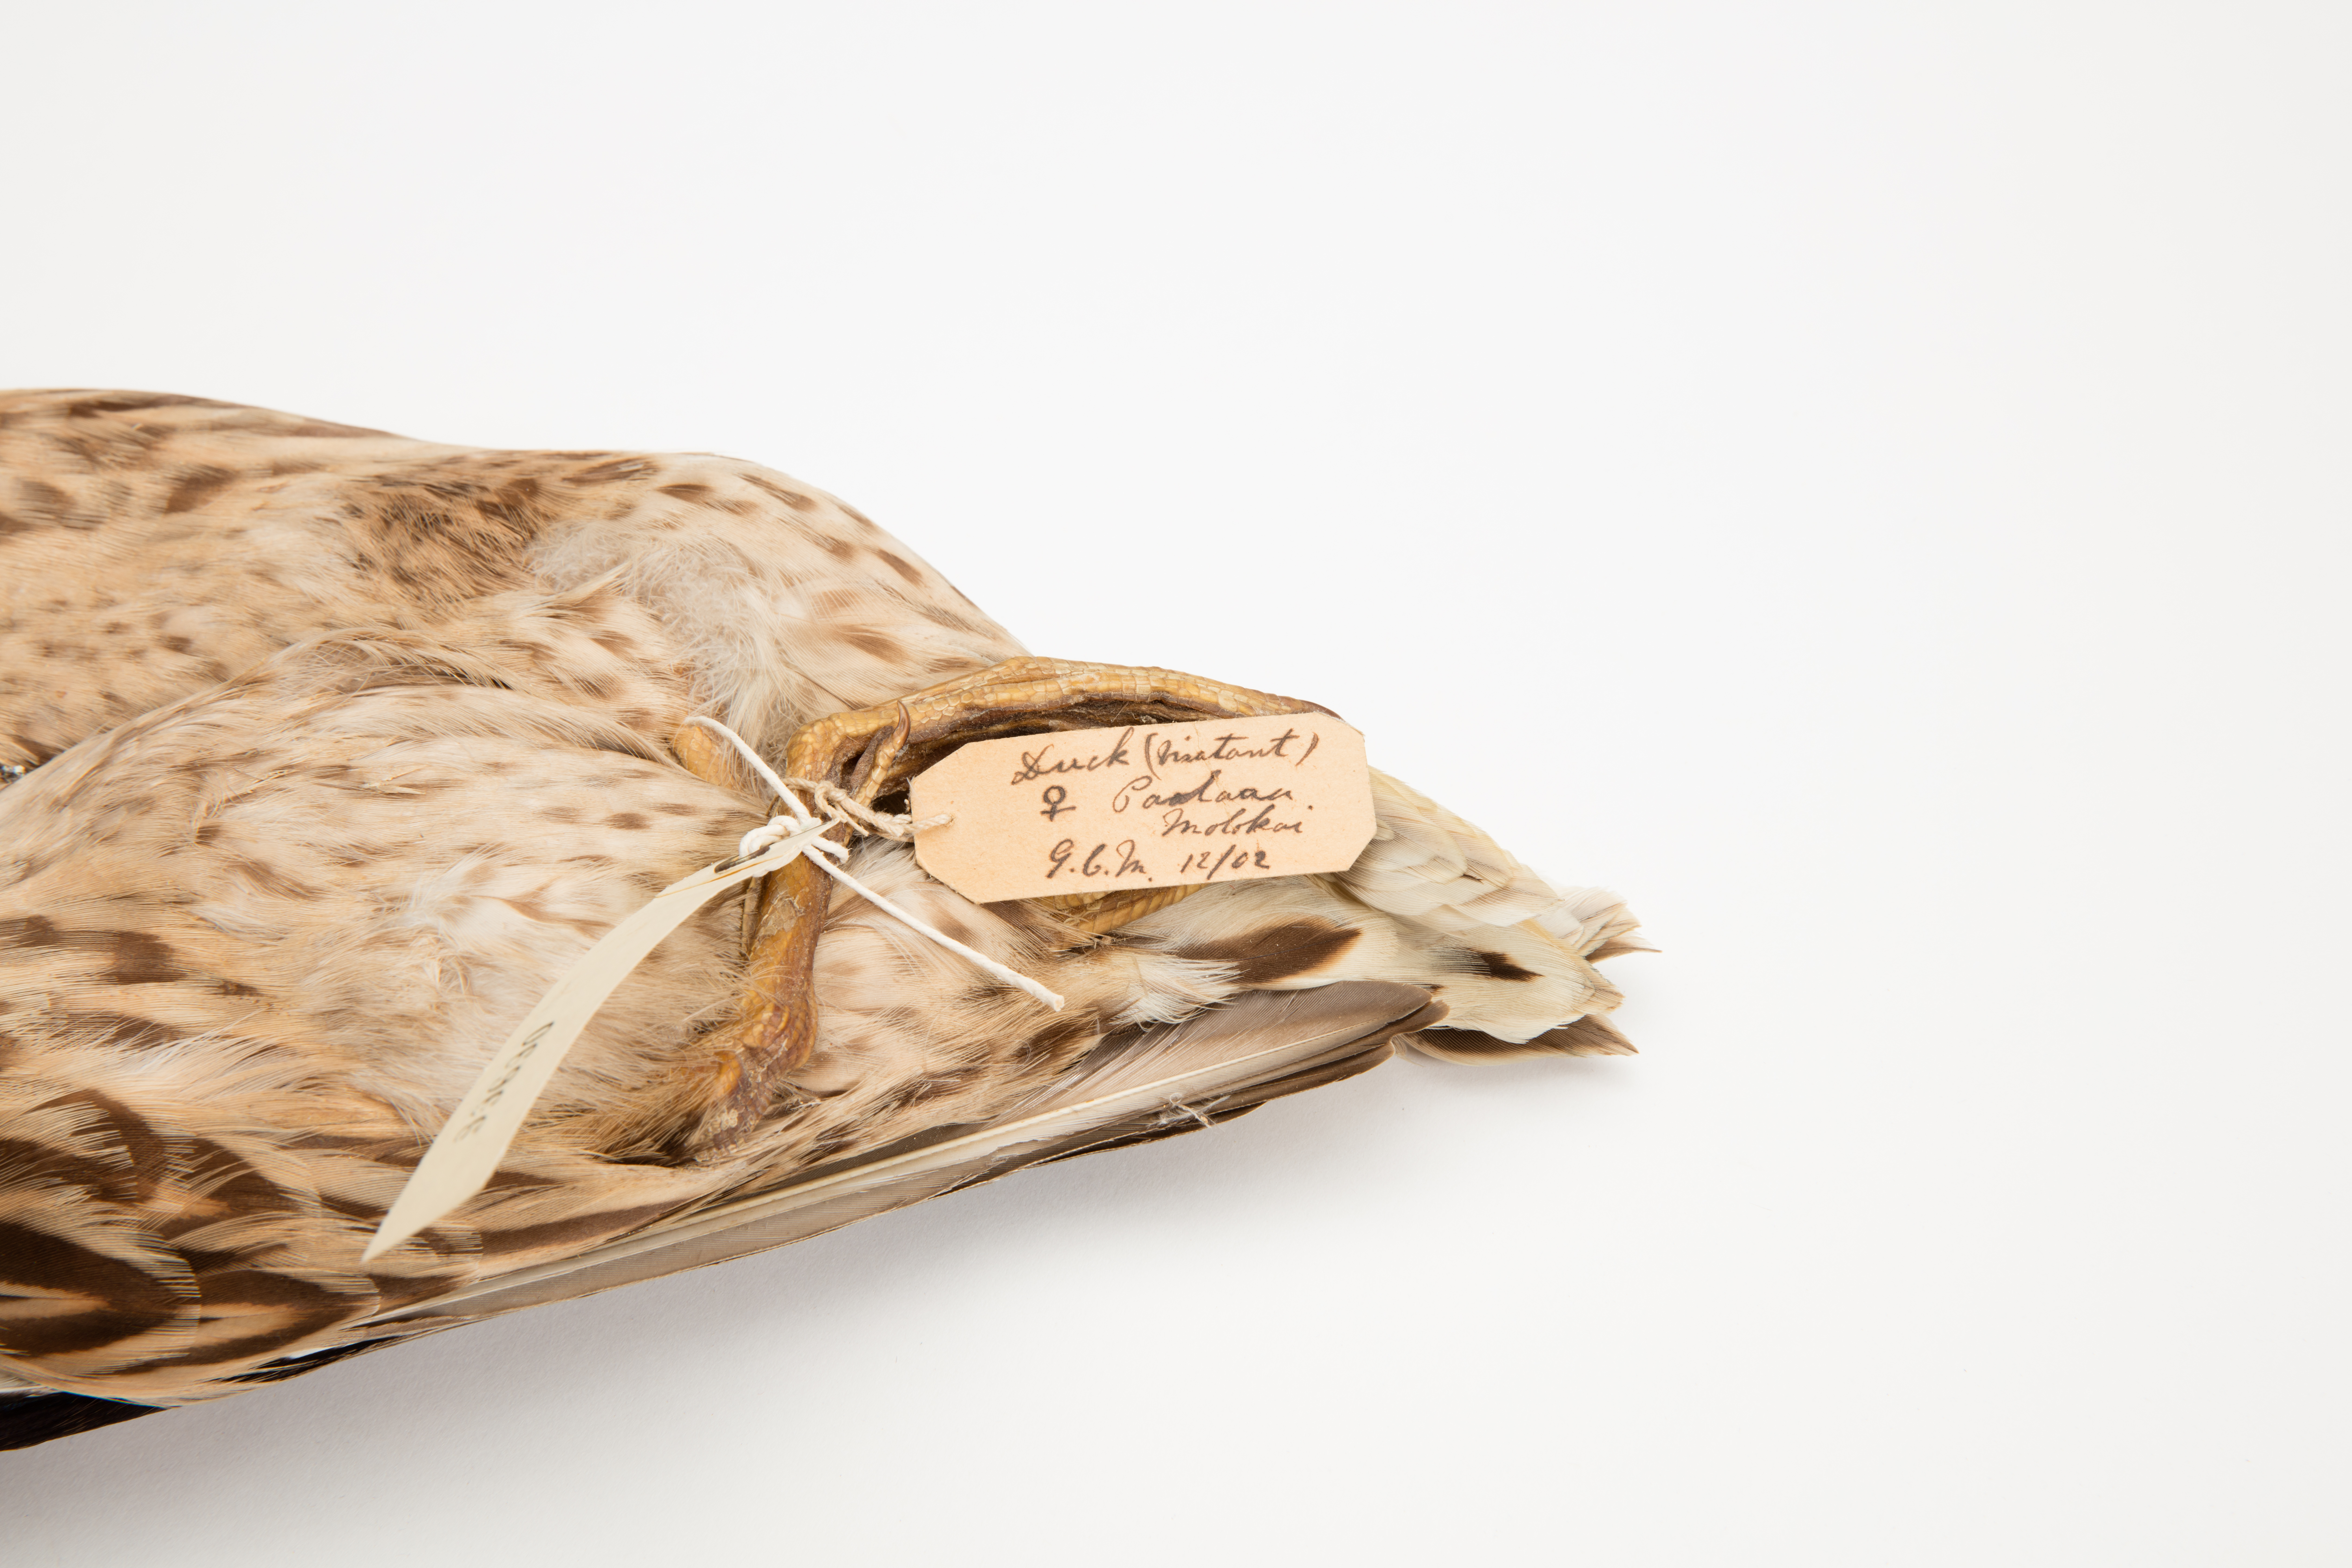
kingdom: Animalia
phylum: Chordata
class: Aves
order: Anseriformes
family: Anatidae
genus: Anas
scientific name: Anas platyrhynchos
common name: Mallard
